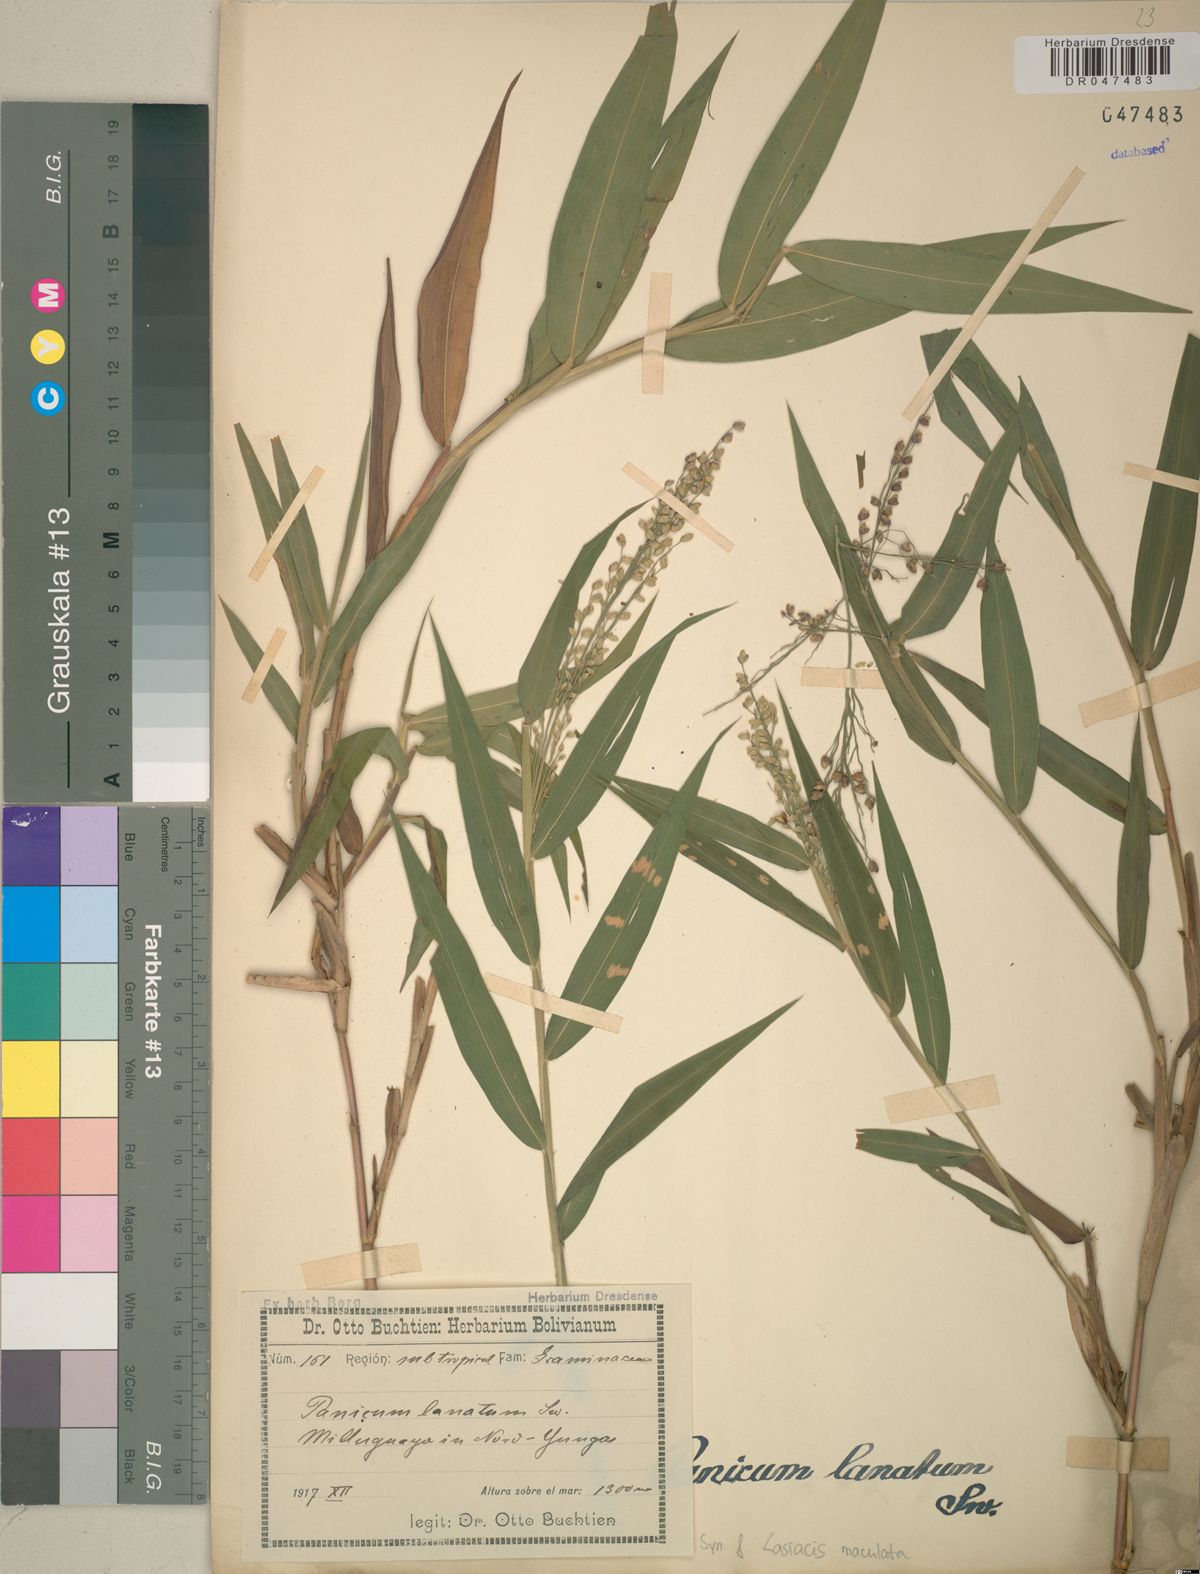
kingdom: Plantae
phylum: Tracheophyta
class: Liliopsida
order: Poales
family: Poaceae
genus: Lasiacis
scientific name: Lasiacis maculata
